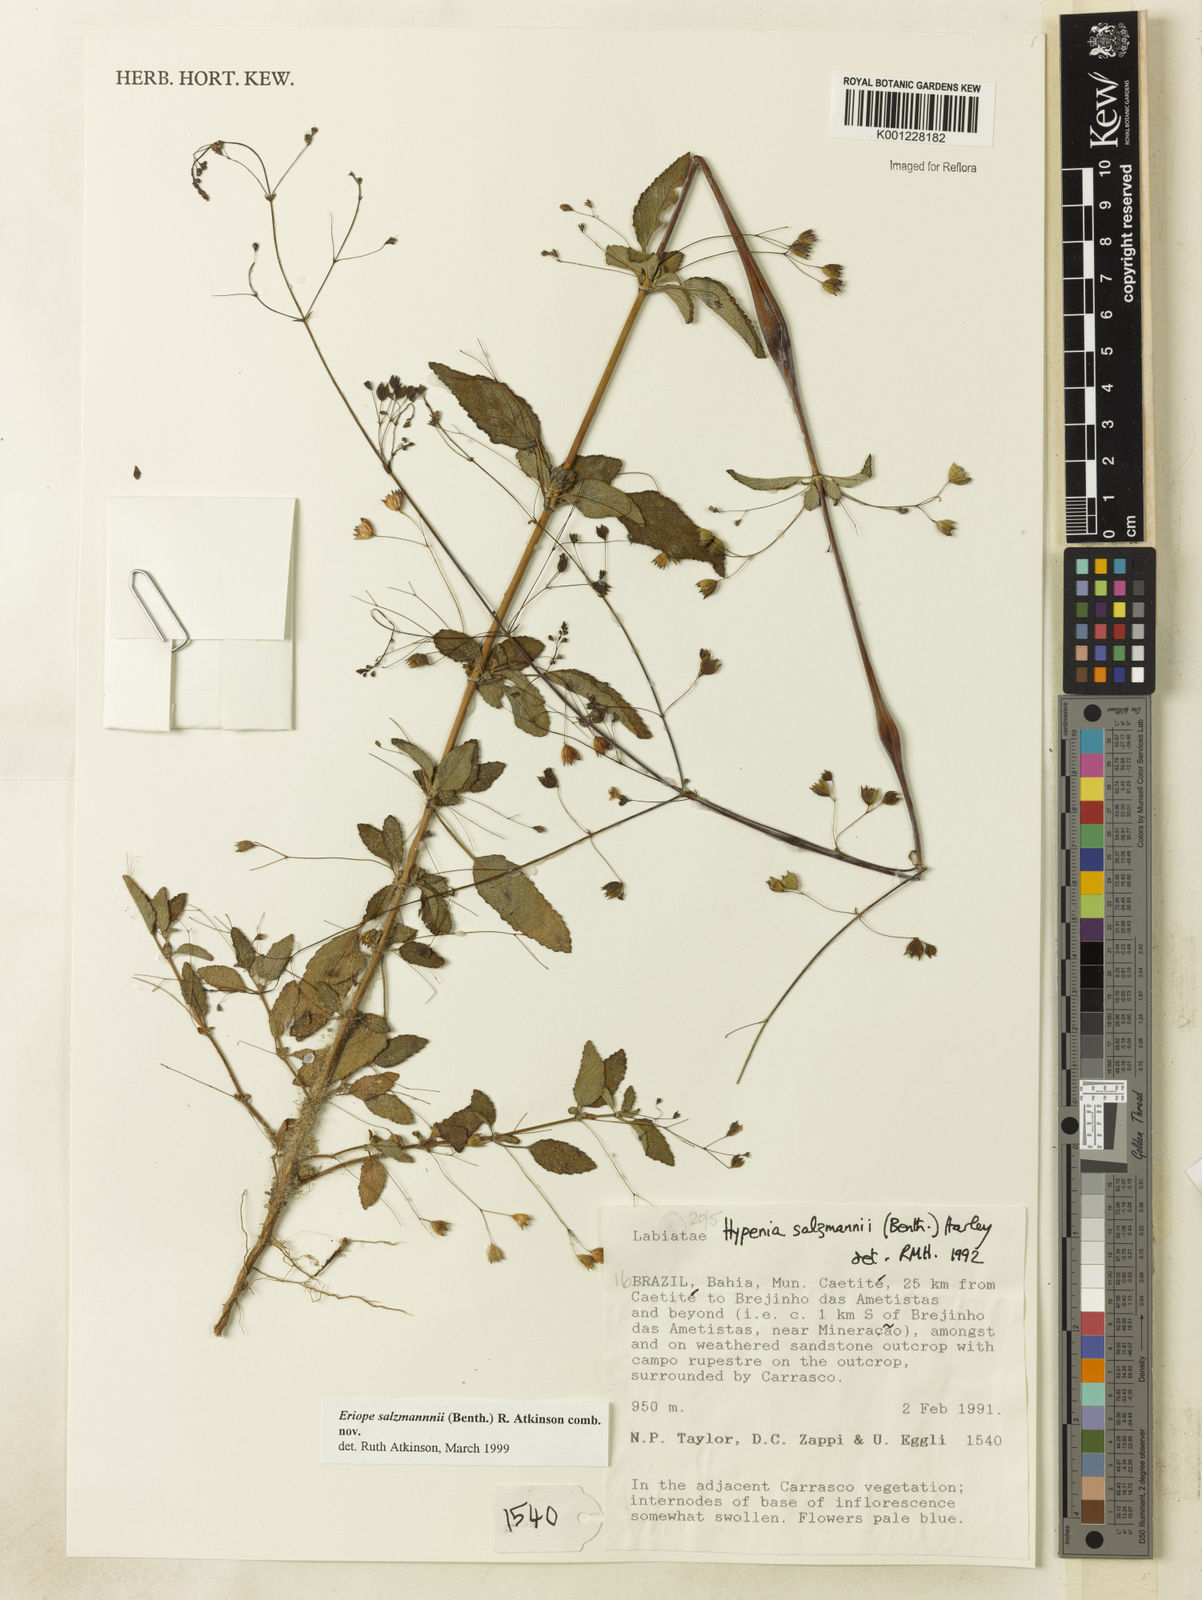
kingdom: Plantae
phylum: Tracheophyta
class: Magnoliopsida
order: Lamiales
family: Lamiaceae
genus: Hypenia
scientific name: Hypenia salzmannii
